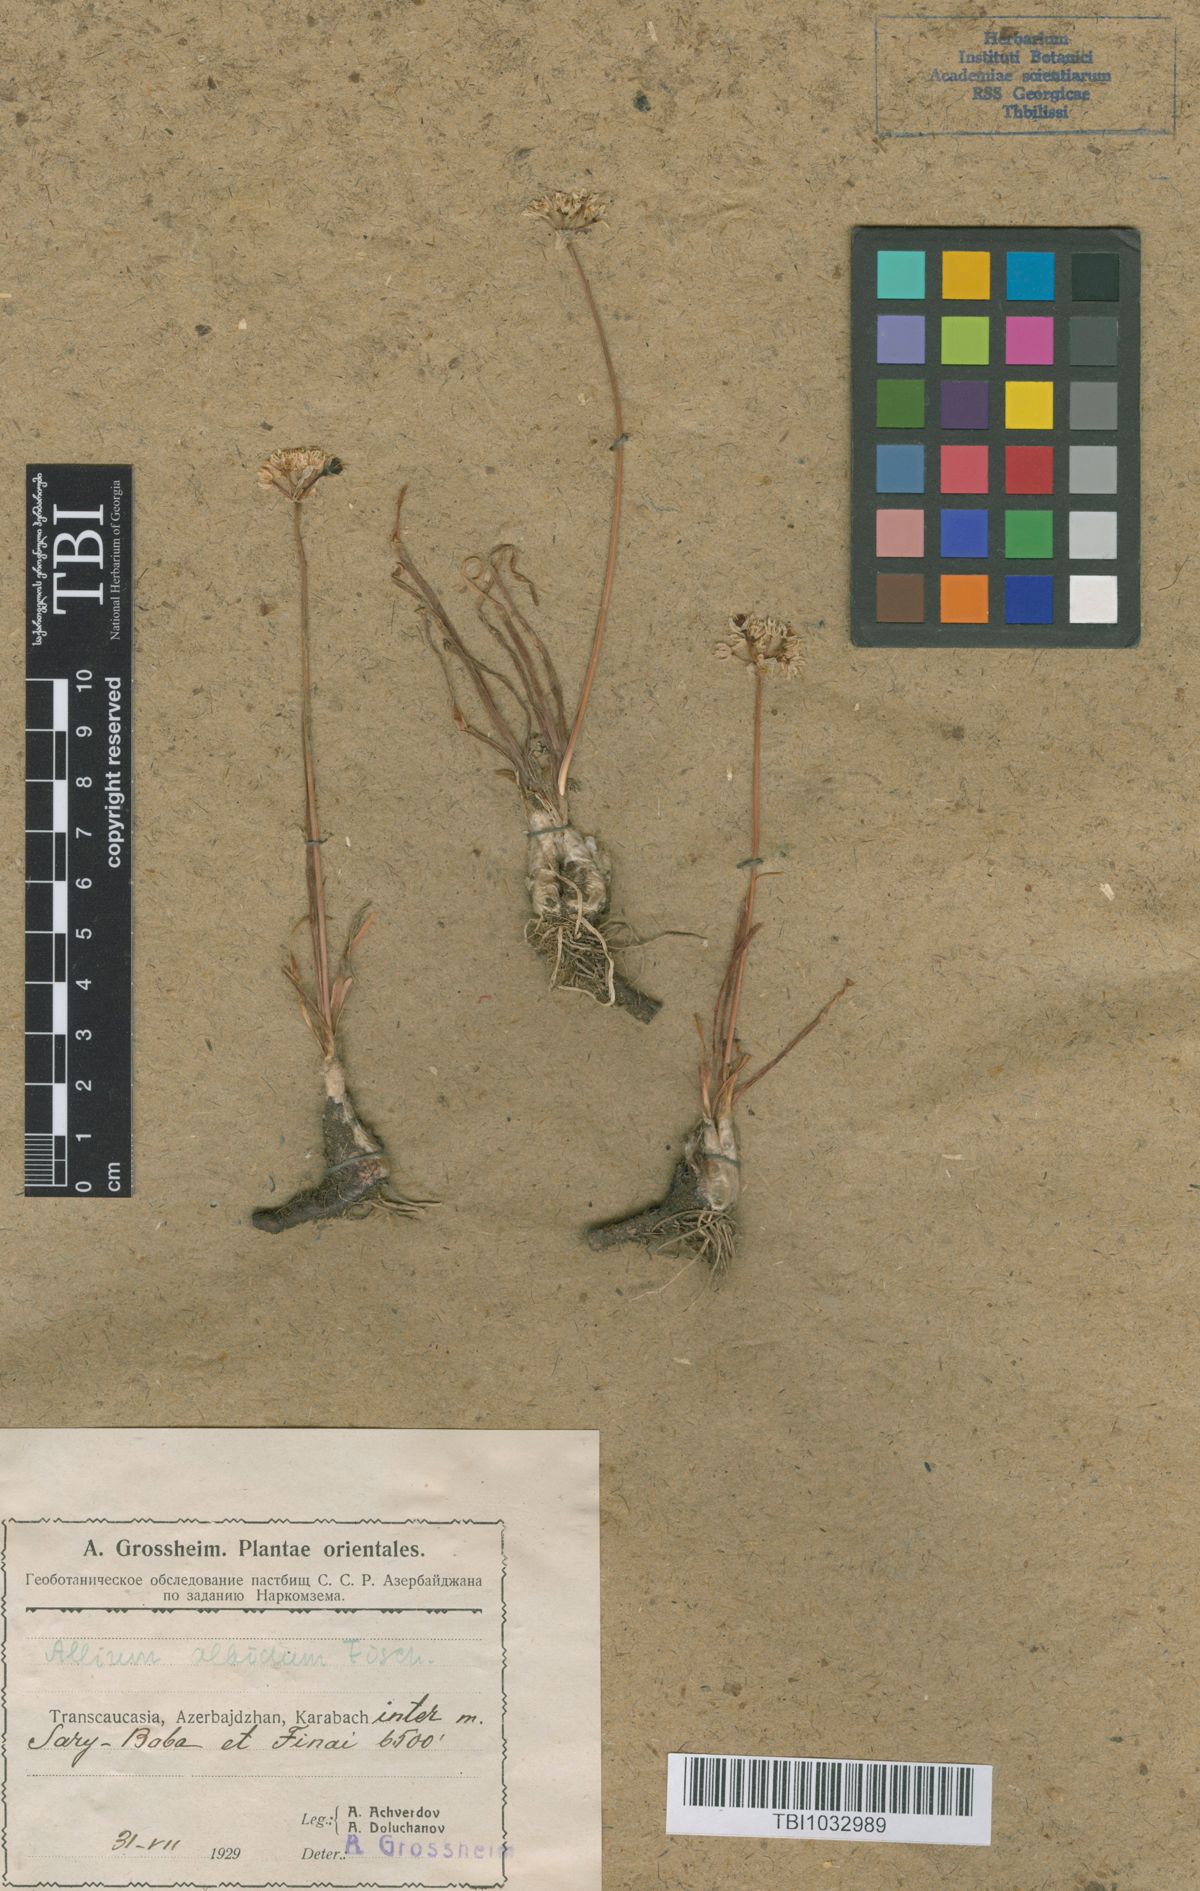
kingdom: Plantae
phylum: Tracheophyta
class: Liliopsida
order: Asparagales
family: Amaryllidaceae
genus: Allium
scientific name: Allium denudatum
